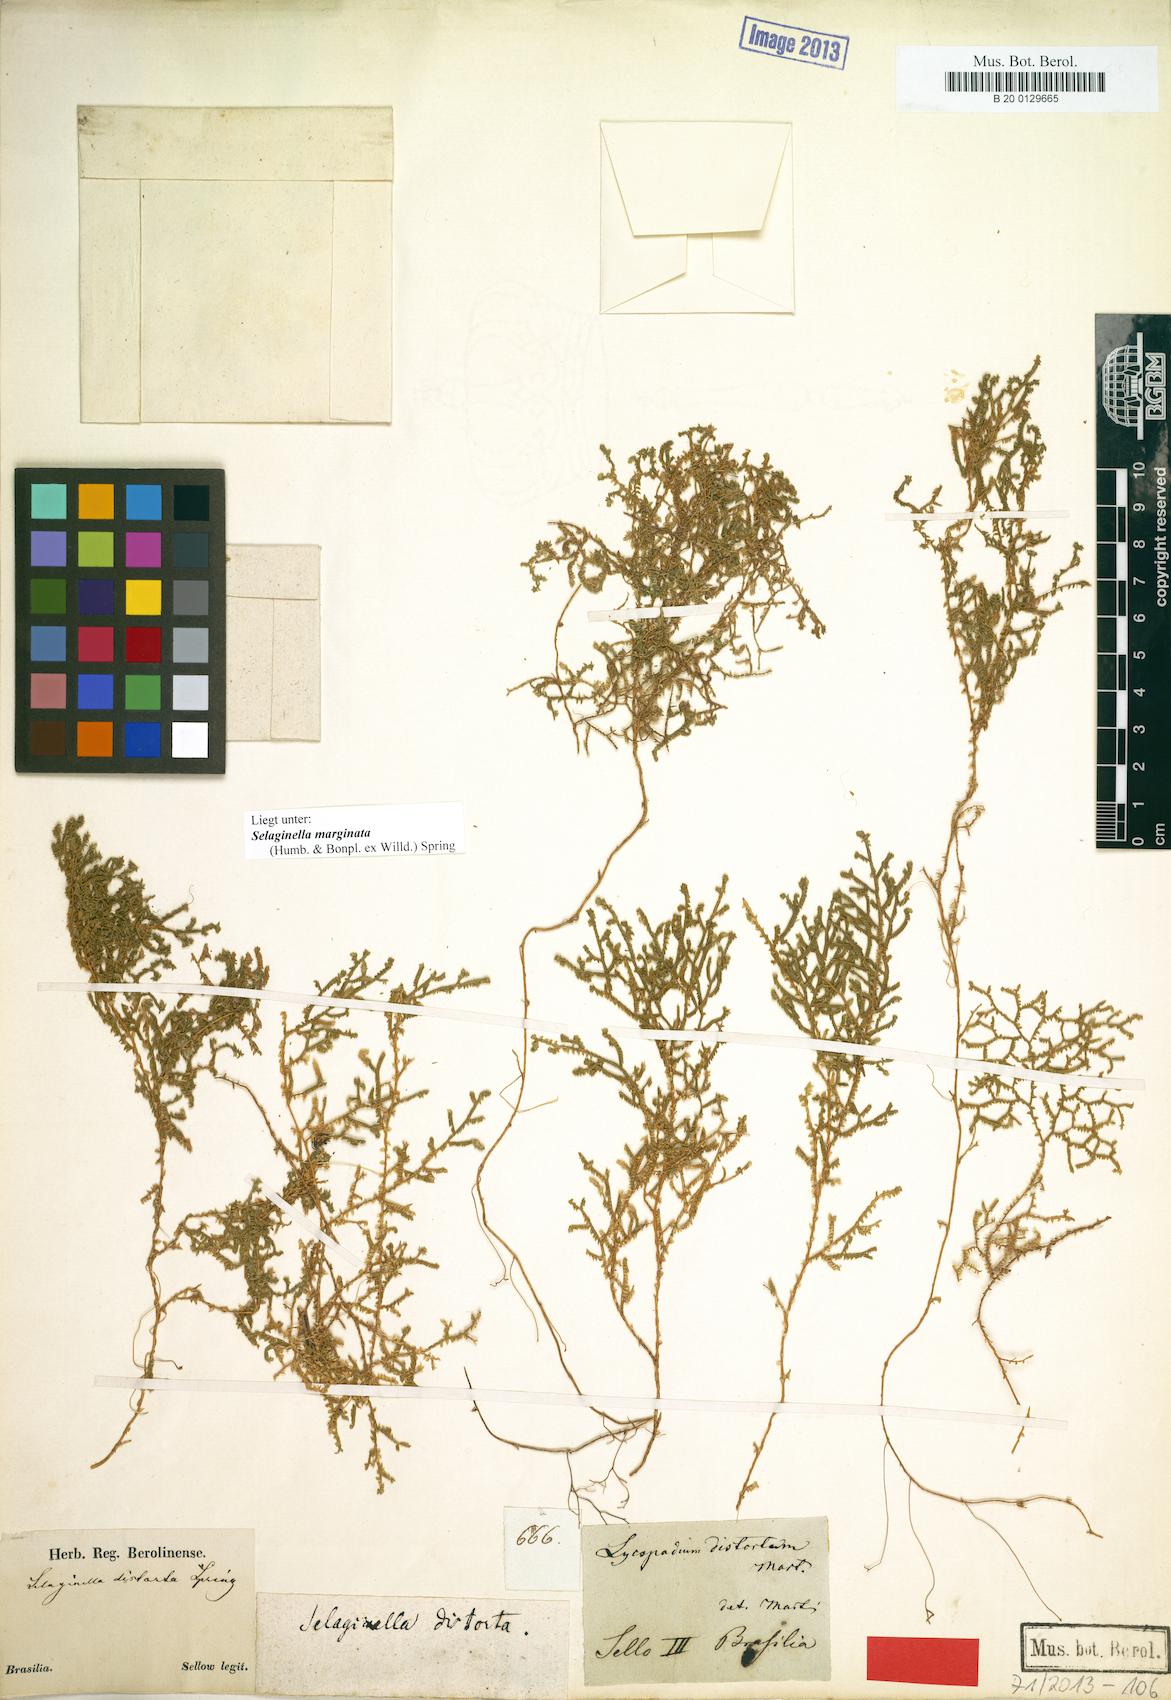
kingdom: Plantae
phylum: Tracheophyta
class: Lycopodiopsida
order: Selaginellales
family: Selaginellaceae
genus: Selaginella
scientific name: Selaginella marginata
